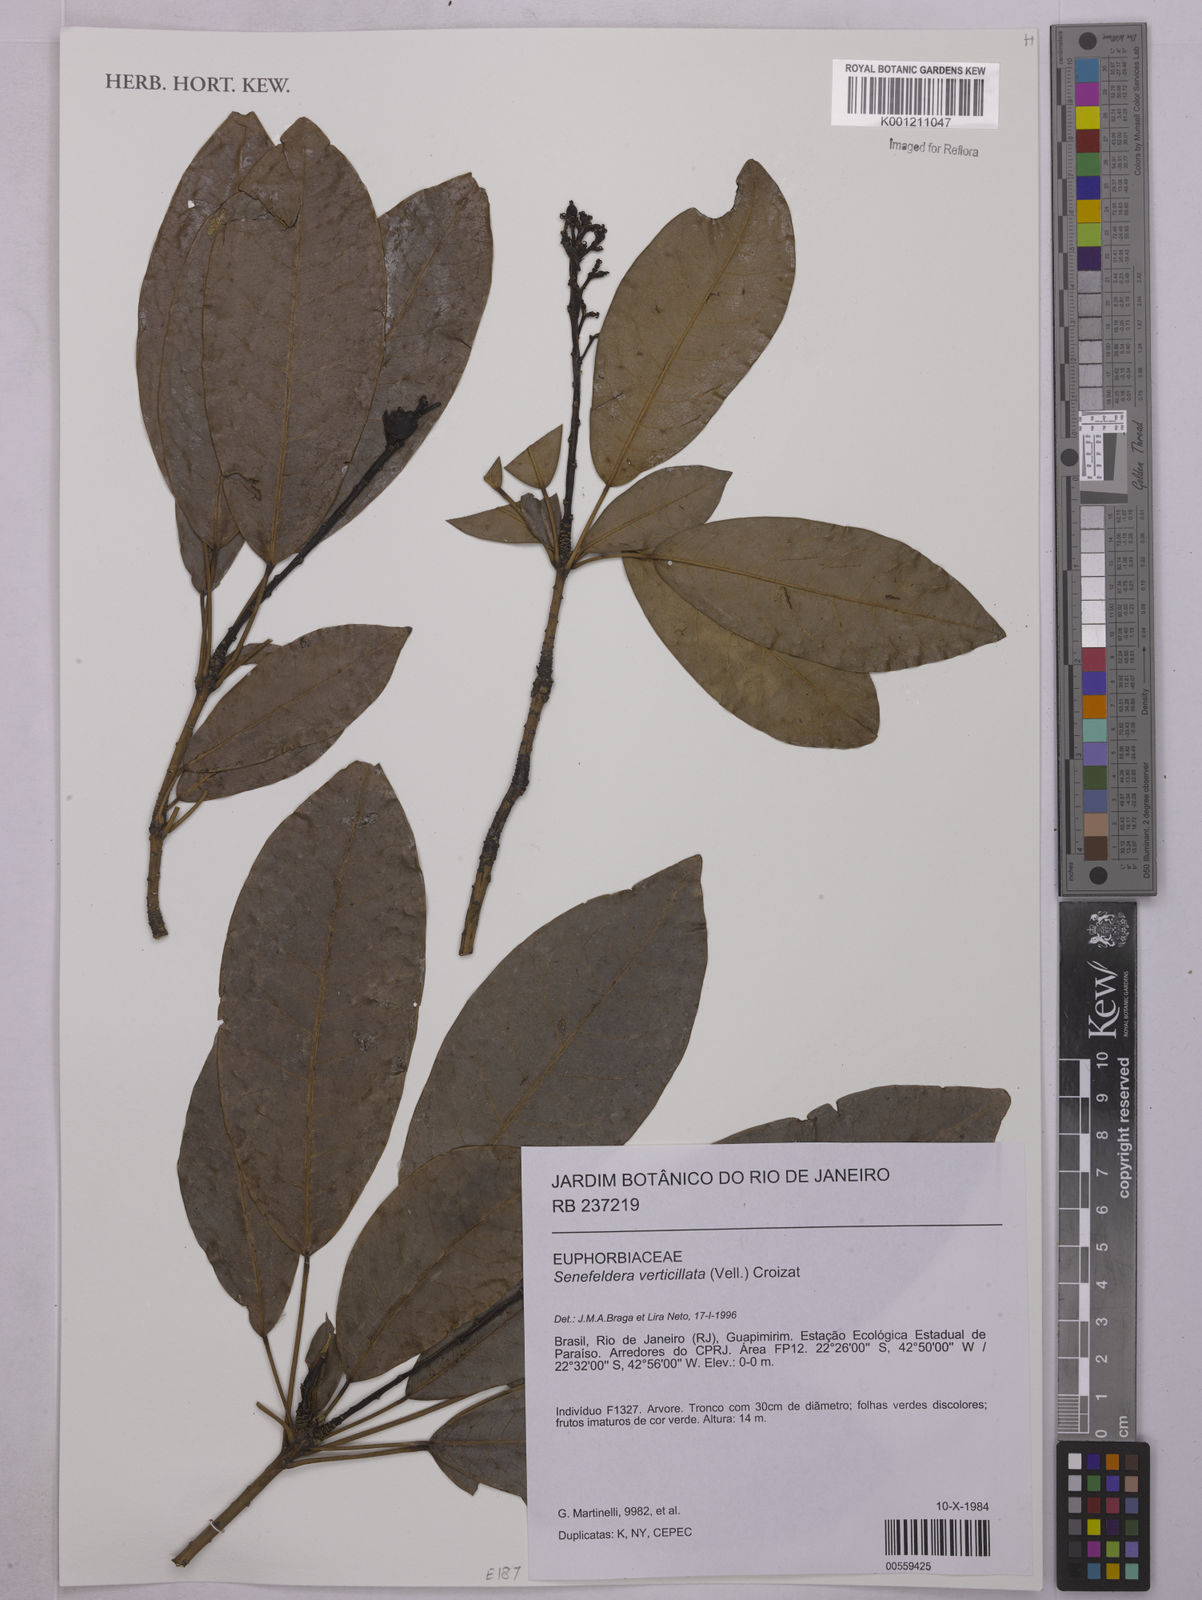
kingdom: Plantae
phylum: Tracheophyta
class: Magnoliopsida
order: Malpighiales
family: Euphorbiaceae
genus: Senefeldera
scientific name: Senefeldera verticillata
